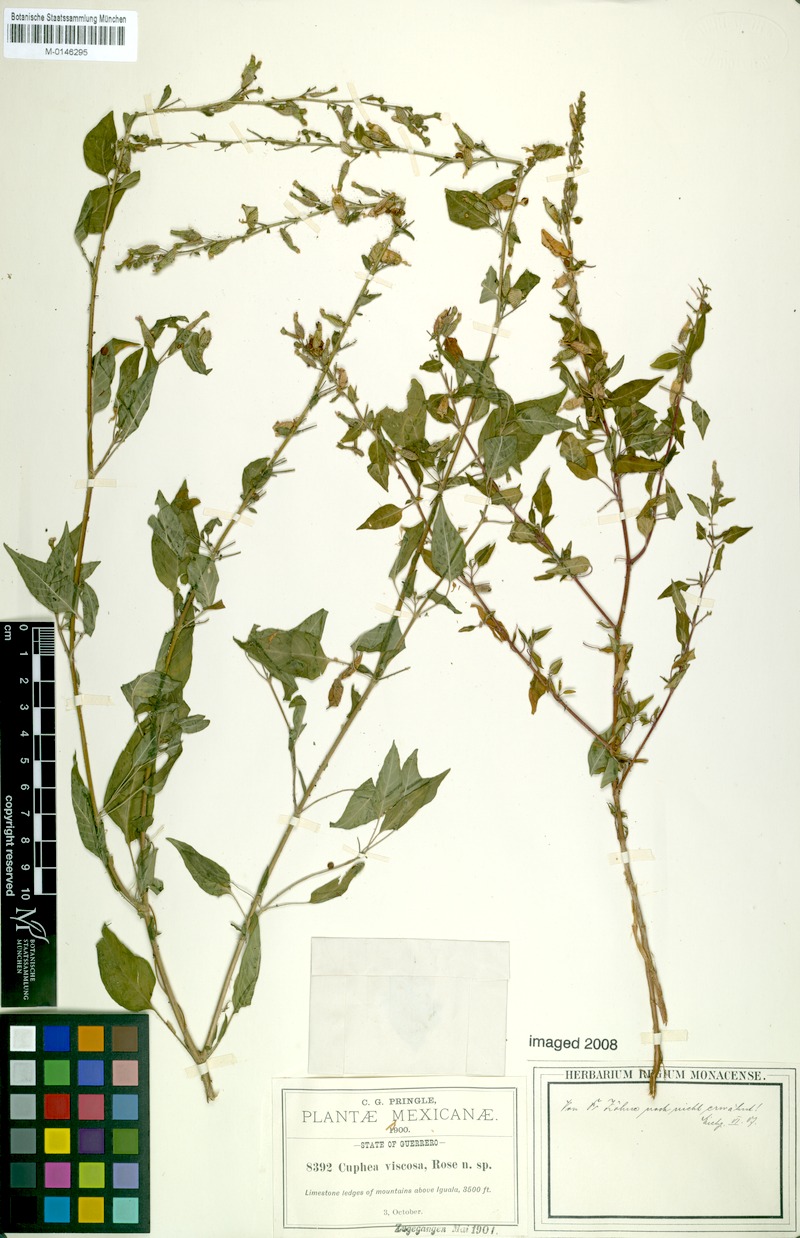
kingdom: Plantae
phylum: Tracheophyta
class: Magnoliopsida
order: Myrtales
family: Lythraceae
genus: Cuphea
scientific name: Cuphea viscosa
